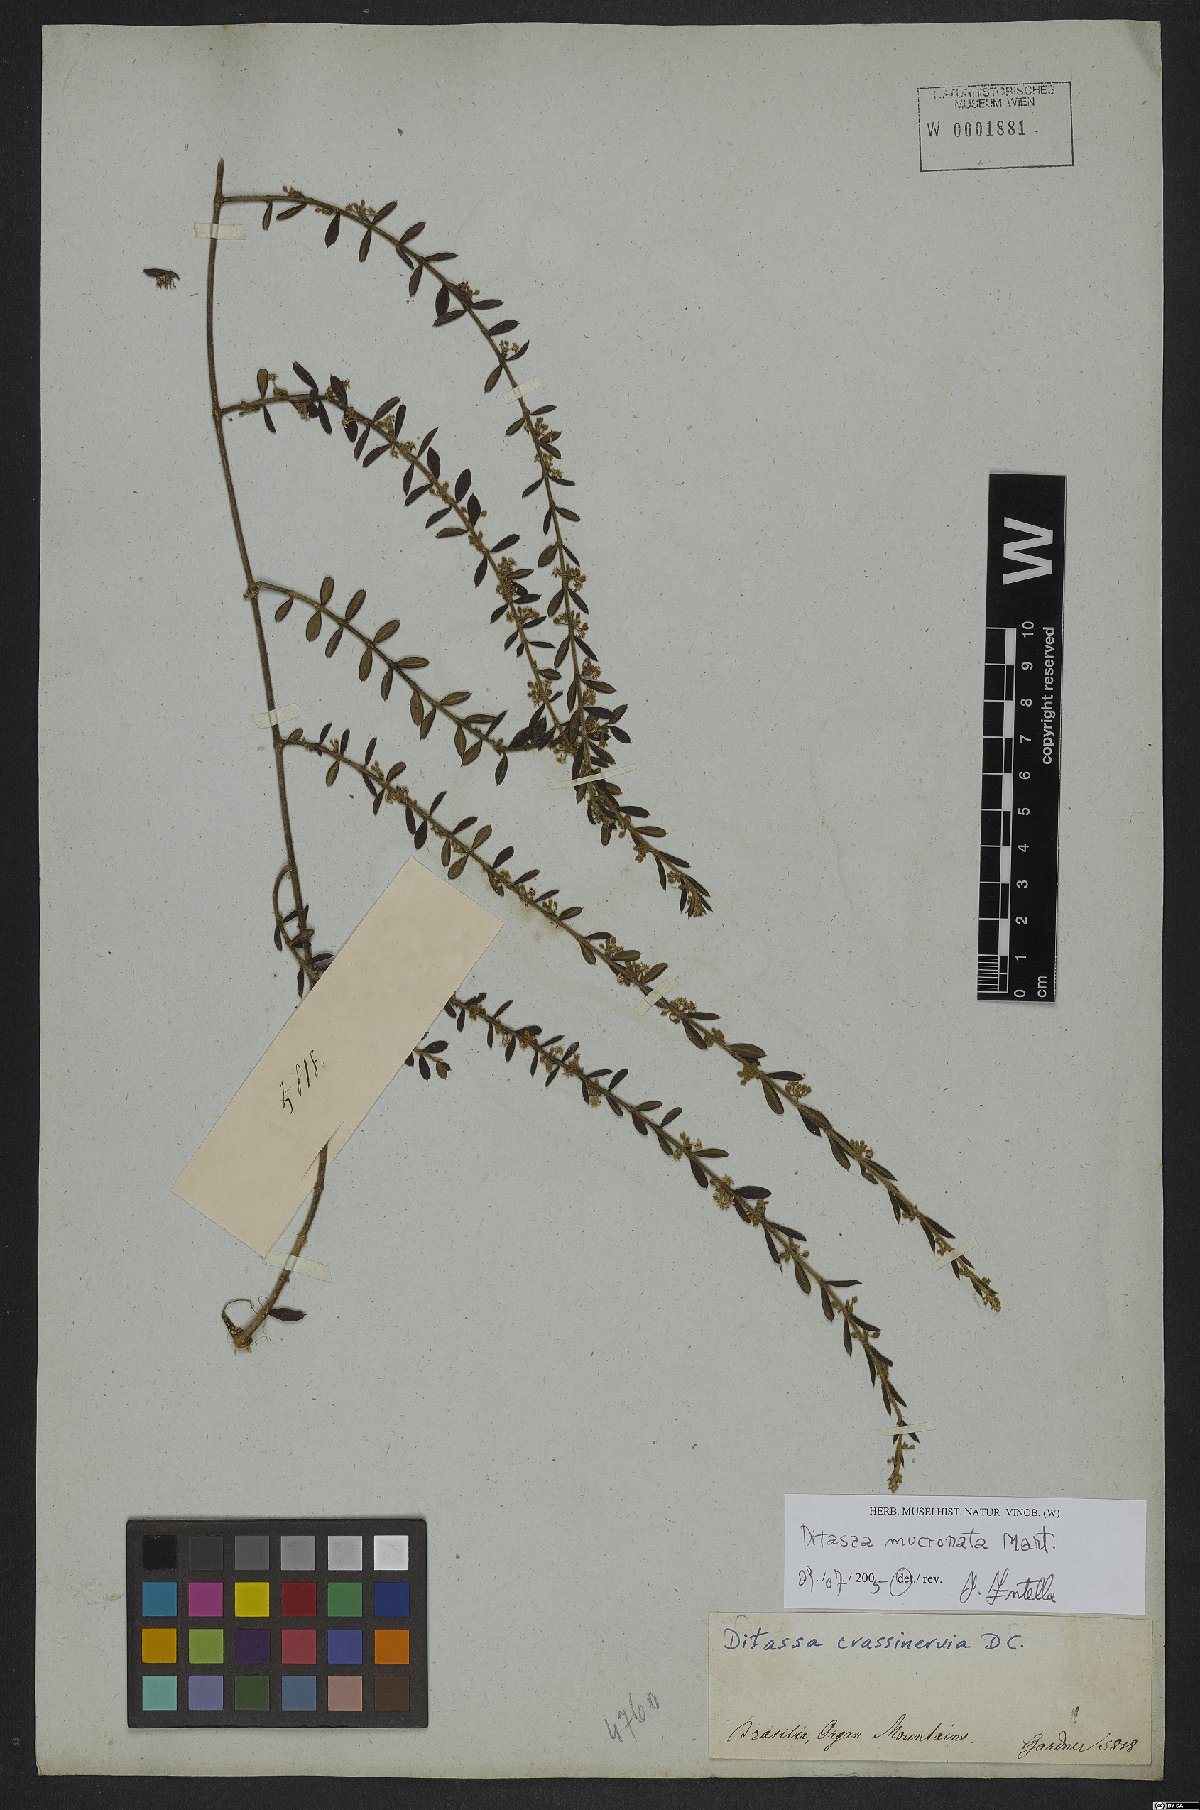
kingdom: Plantae
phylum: Tracheophyta
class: Magnoliopsida
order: Gentianales
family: Apocynaceae
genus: Ditassa
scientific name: Ditassa mucronata
